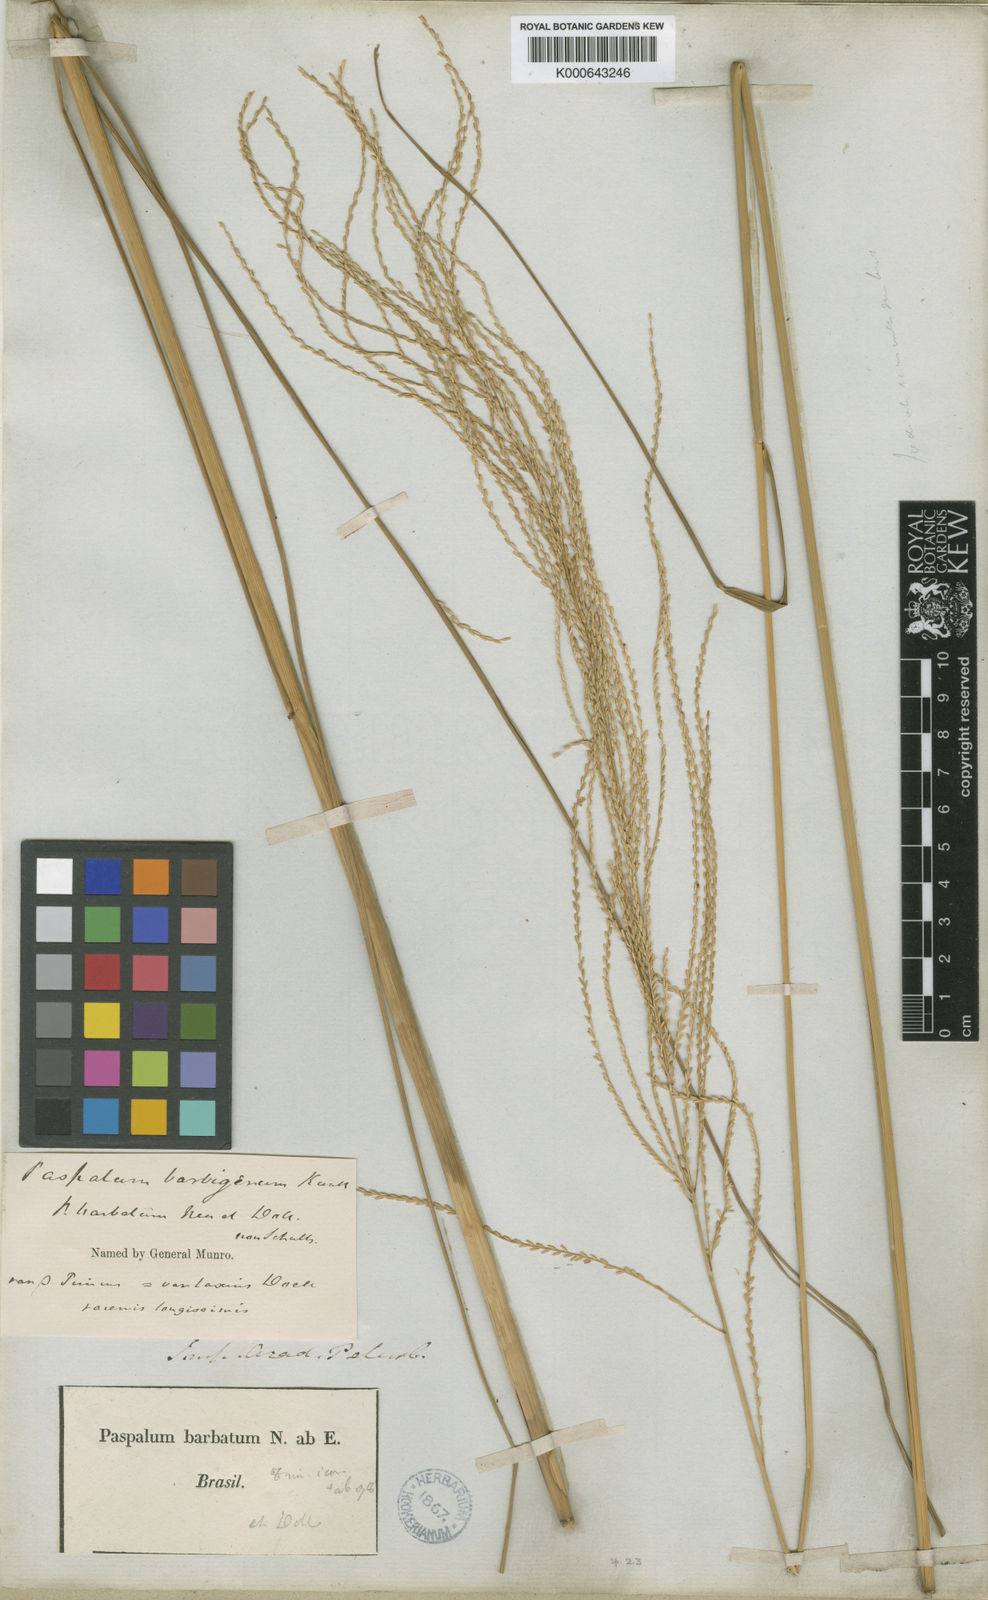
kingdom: Plantae
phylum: Tracheophyta
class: Liliopsida
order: Poales
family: Poaceae
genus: Axonopus
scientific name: Axonopus siccus
